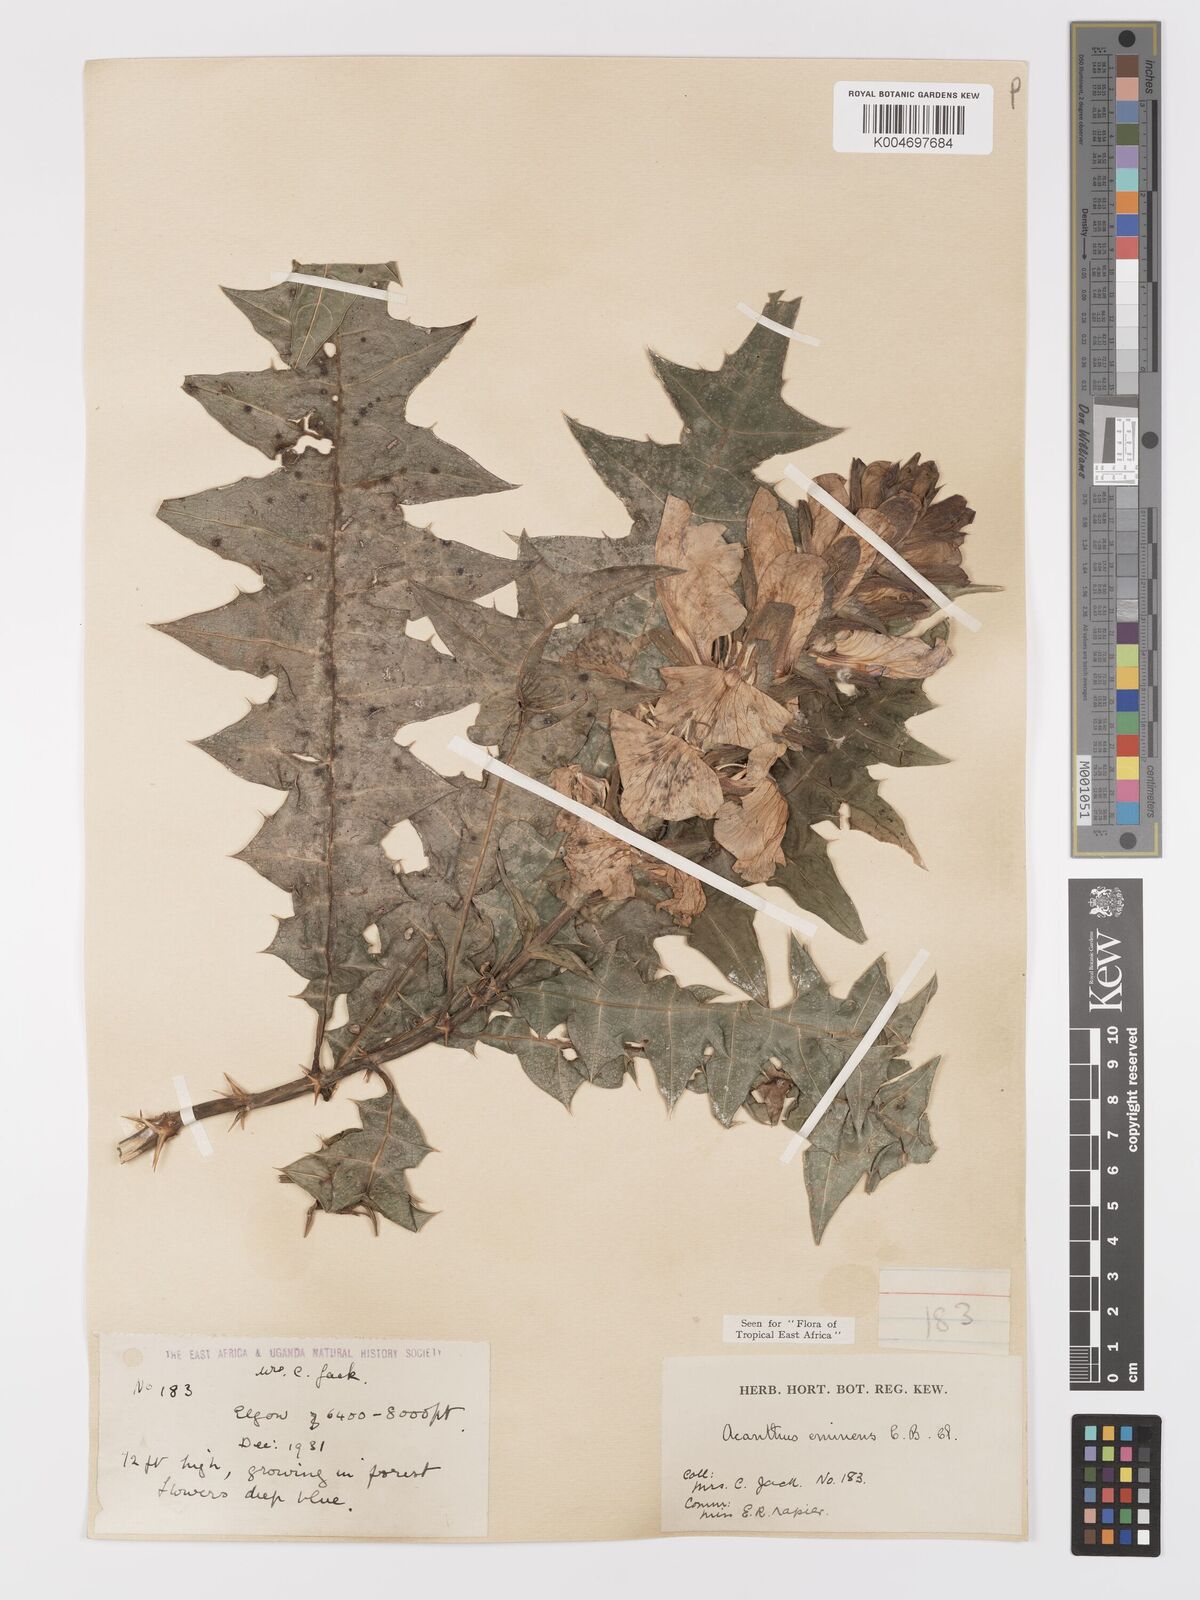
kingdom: Plantae
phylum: Tracheophyta
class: Magnoliopsida
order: Lamiales
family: Acanthaceae
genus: Acanthus
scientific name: Acanthus eminens
